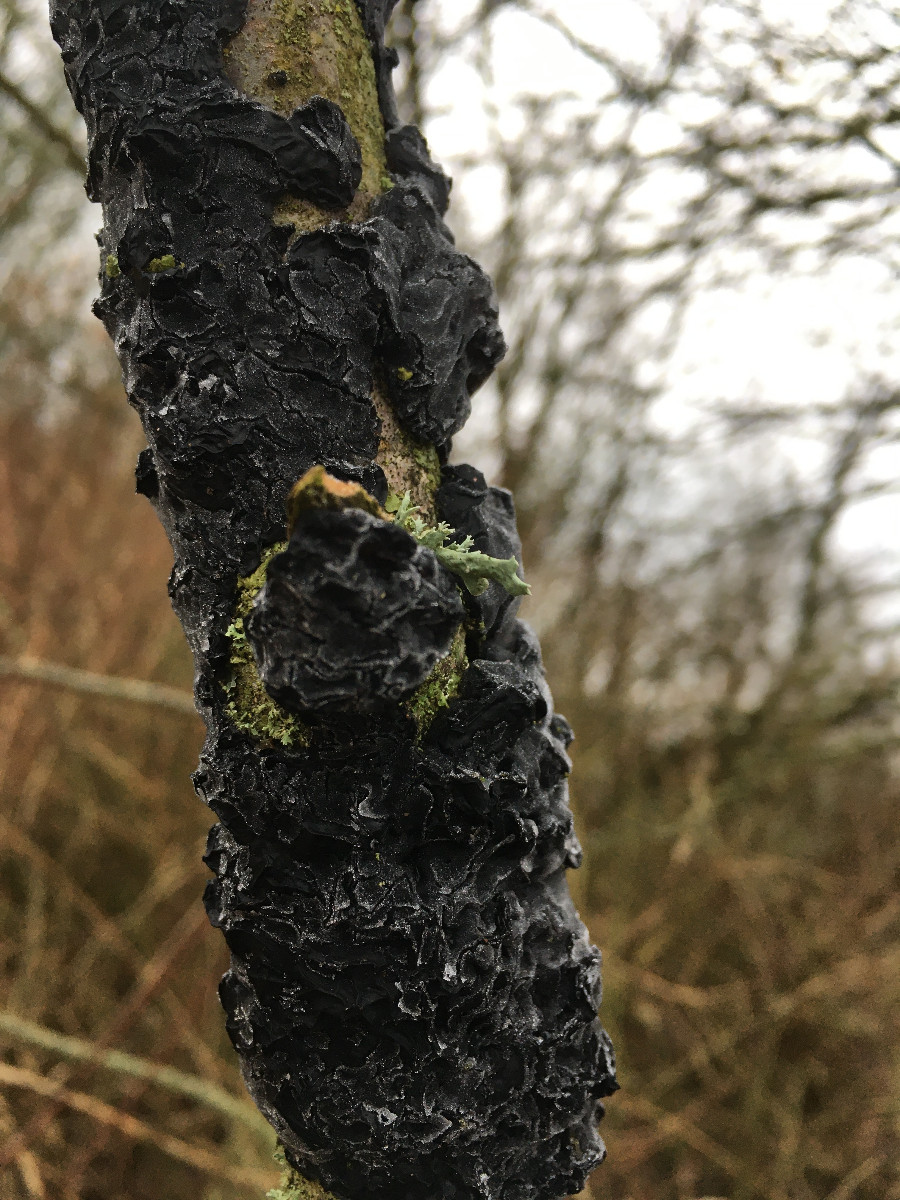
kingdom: Fungi
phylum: Basidiomycota
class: Tremellomycetes
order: Tremellales
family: Exidiaceae
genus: Exidia
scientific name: Exidia
